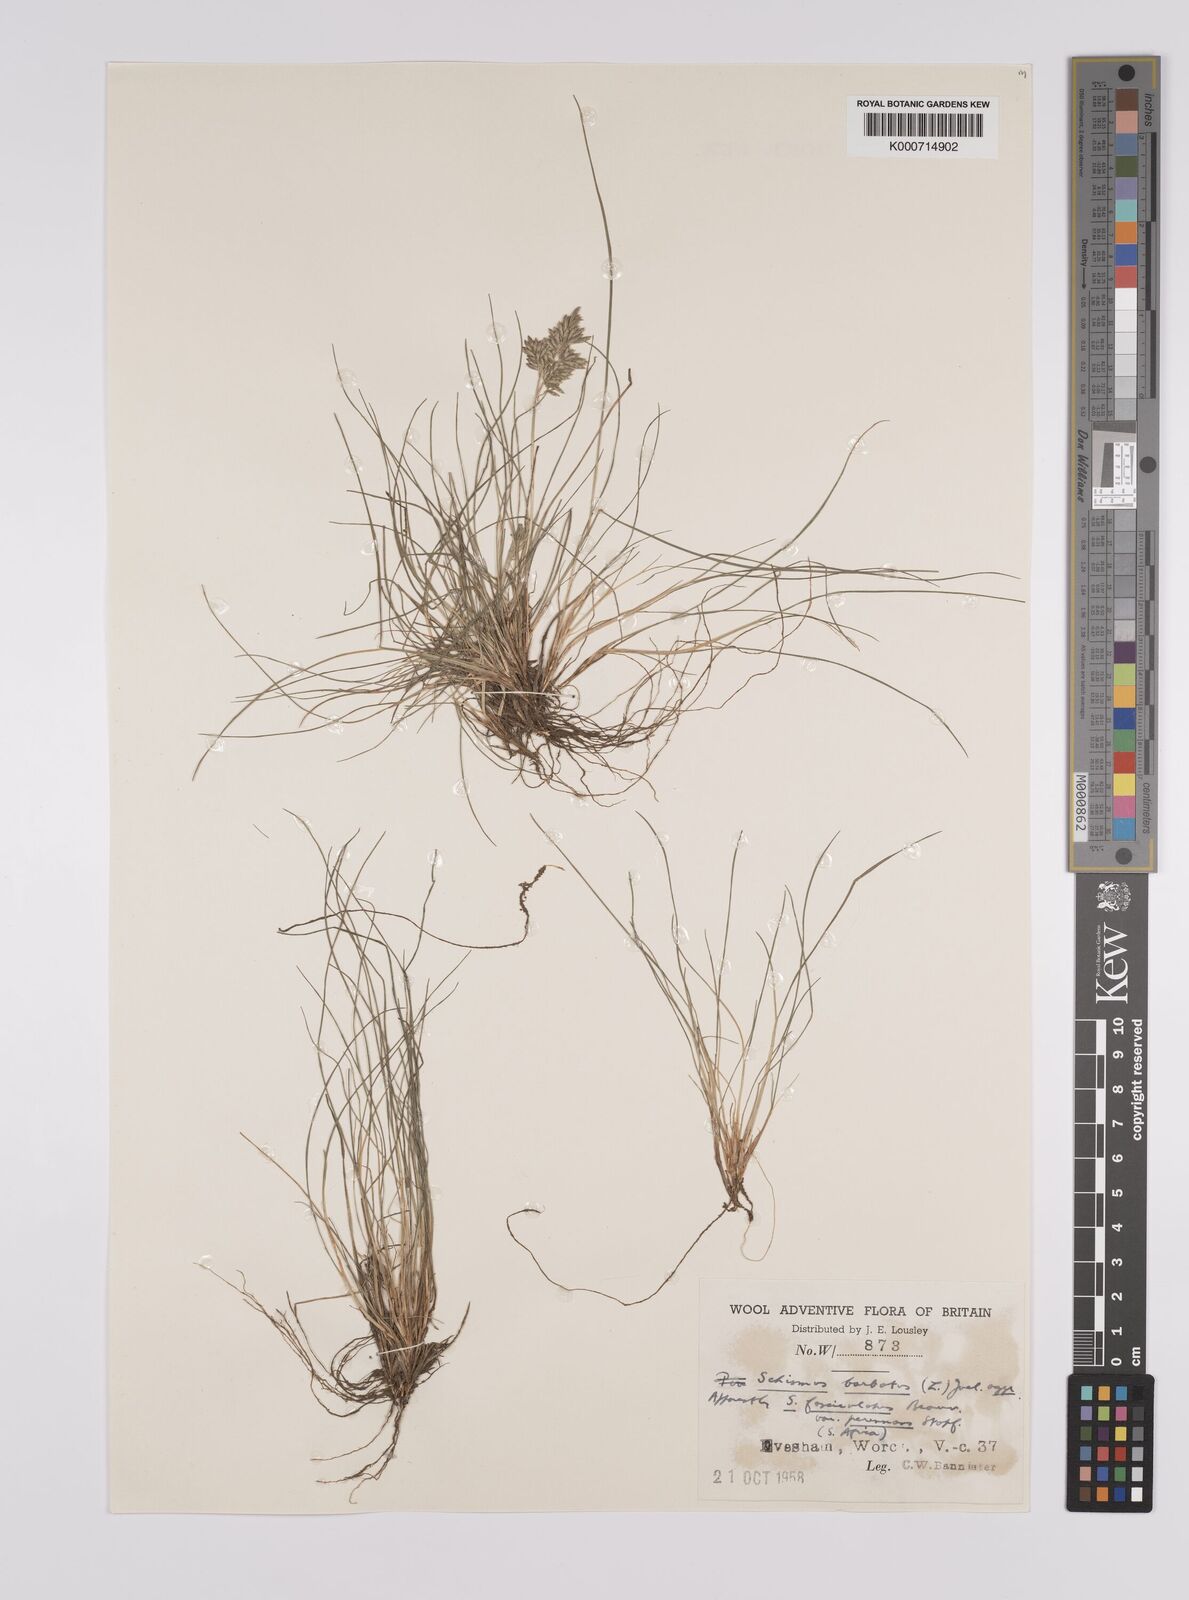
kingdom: Plantae
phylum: Tracheophyta
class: Liliopsida
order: Poales
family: Poaceae
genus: Schismus
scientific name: Schismus barbatus
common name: Kelch-grass
